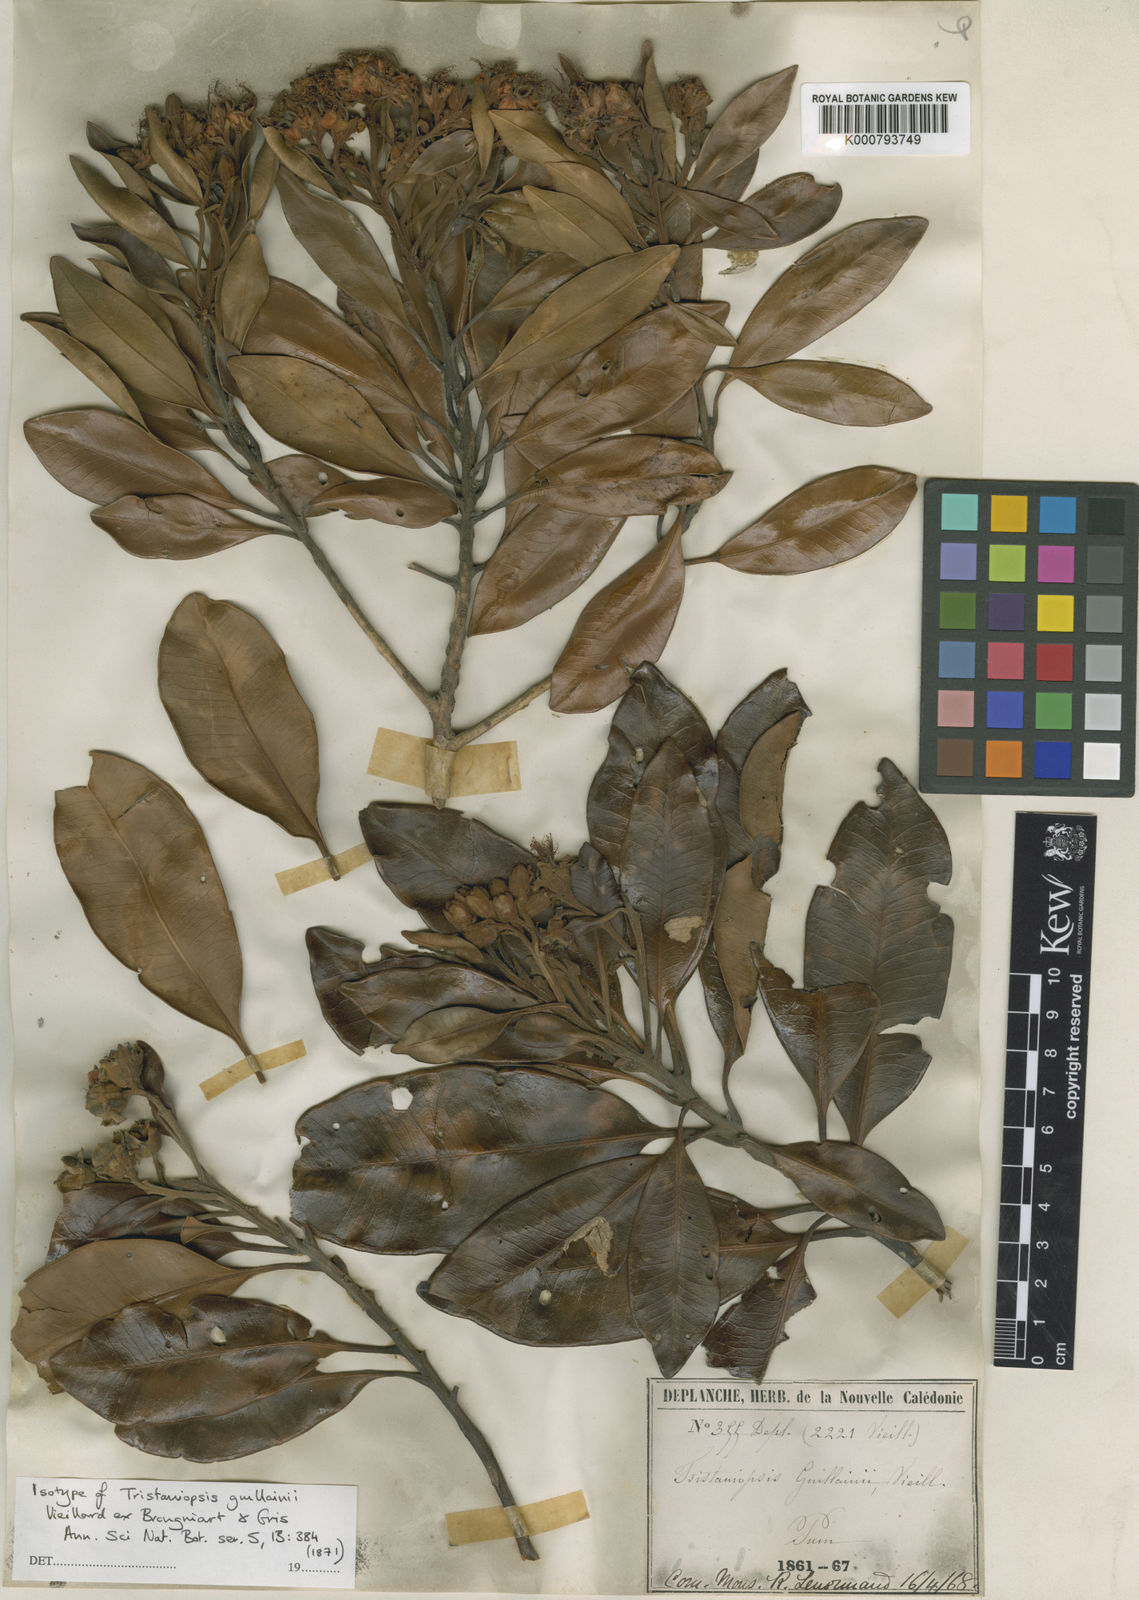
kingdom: Plantae
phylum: Tracheophyta
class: Magnoliopsida
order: Myrtales
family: Myrtaceae
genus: Tristaniopsis
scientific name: Tristaniopsis guillainii
